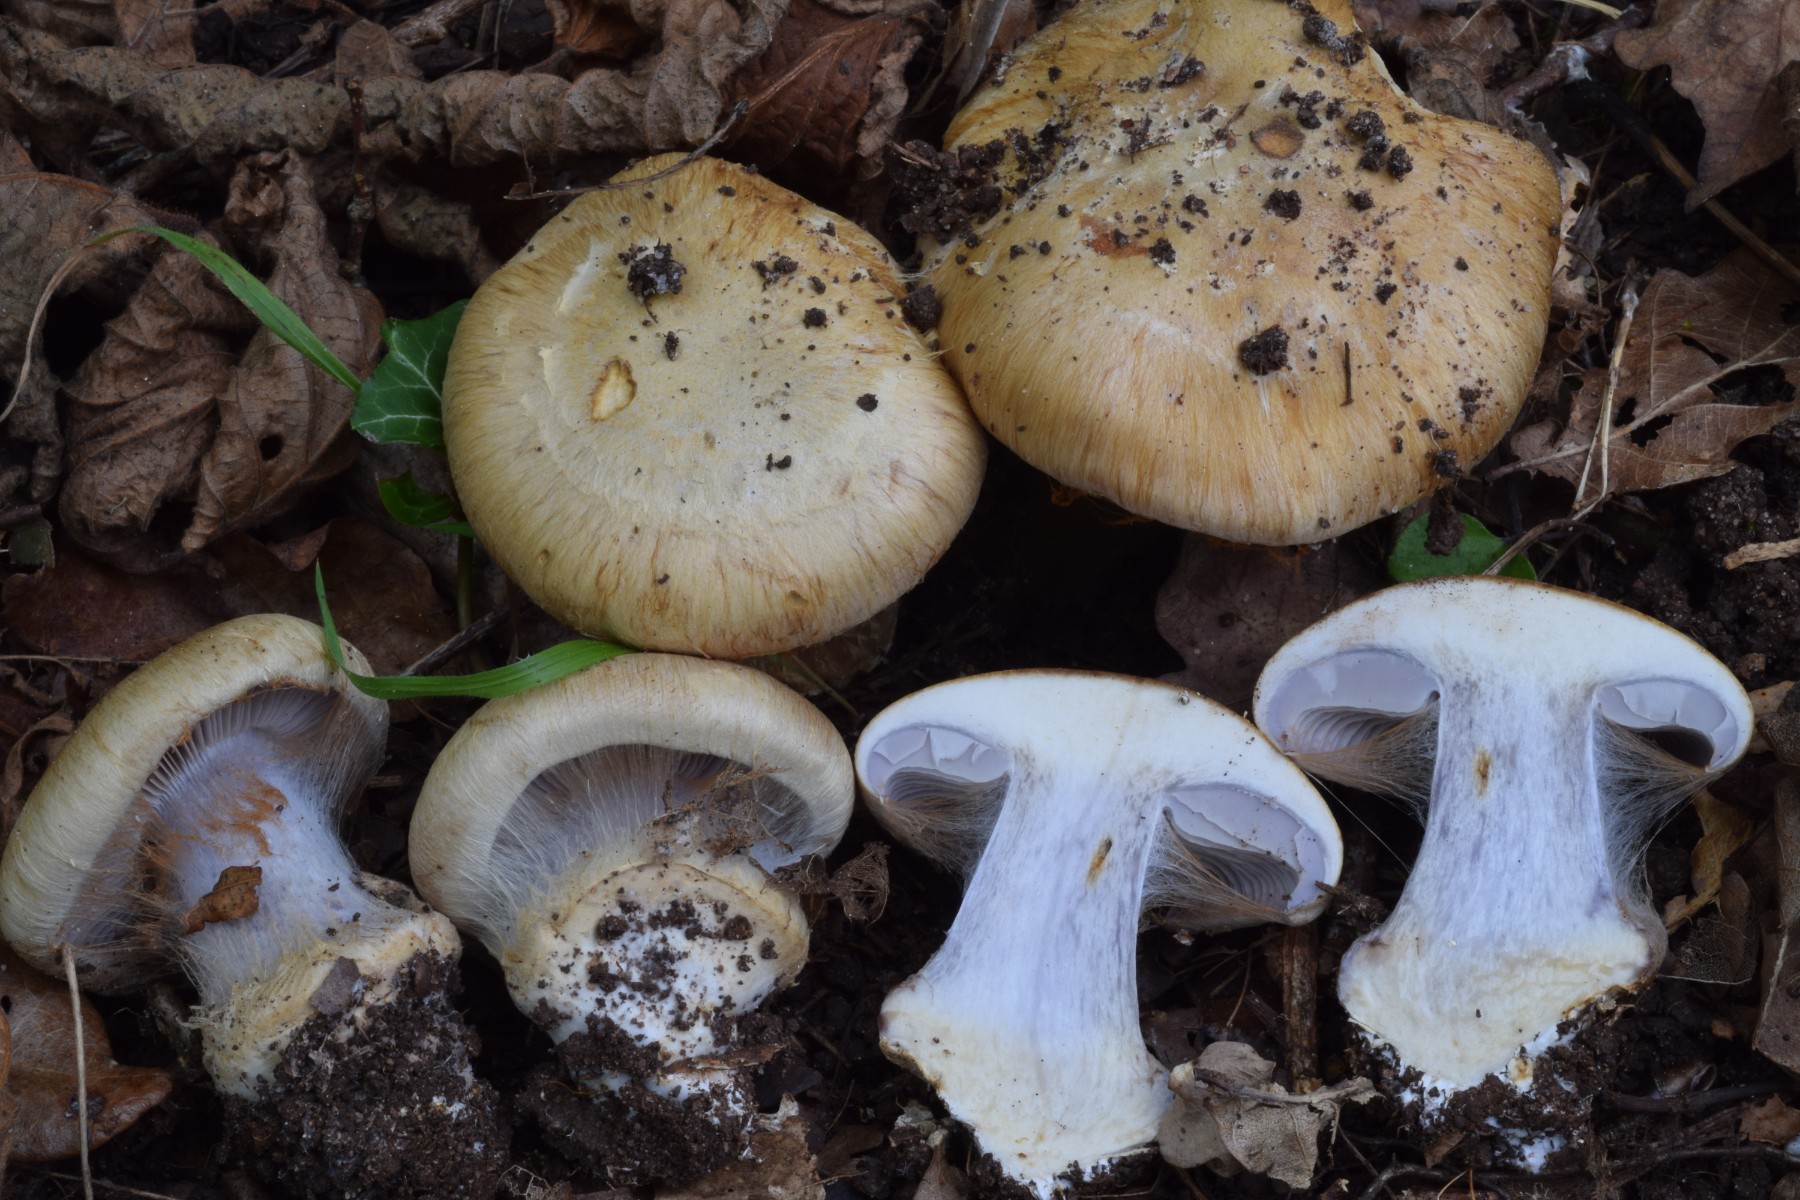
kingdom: Fungi
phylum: Basidiomycota
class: Agaricomycetes
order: Agaricales
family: Cortinariaceae
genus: Phlegmacium
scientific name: Phlegmacium
